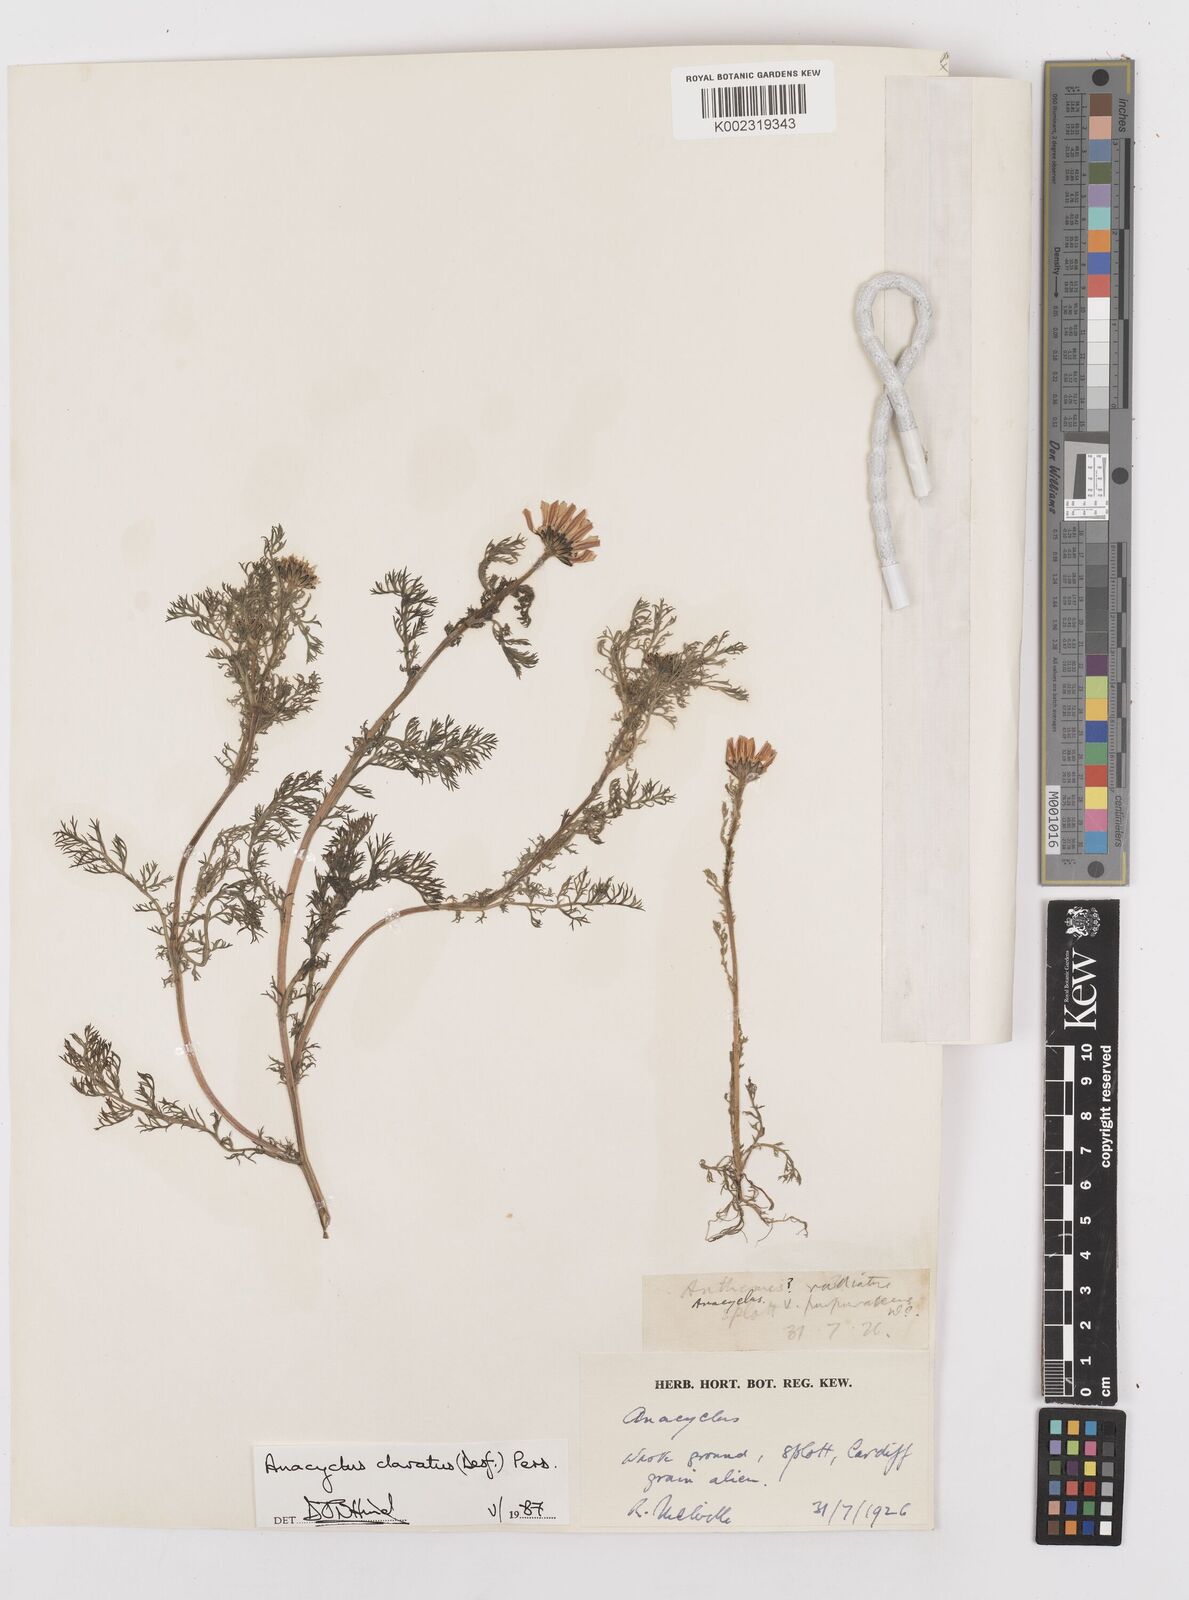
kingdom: Plantae
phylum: Tracheophyta
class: Magnoliopsida
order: Asterales
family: Asteraceae
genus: Anacyclus
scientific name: Anacyclus clavatus
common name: Whitebuttons
